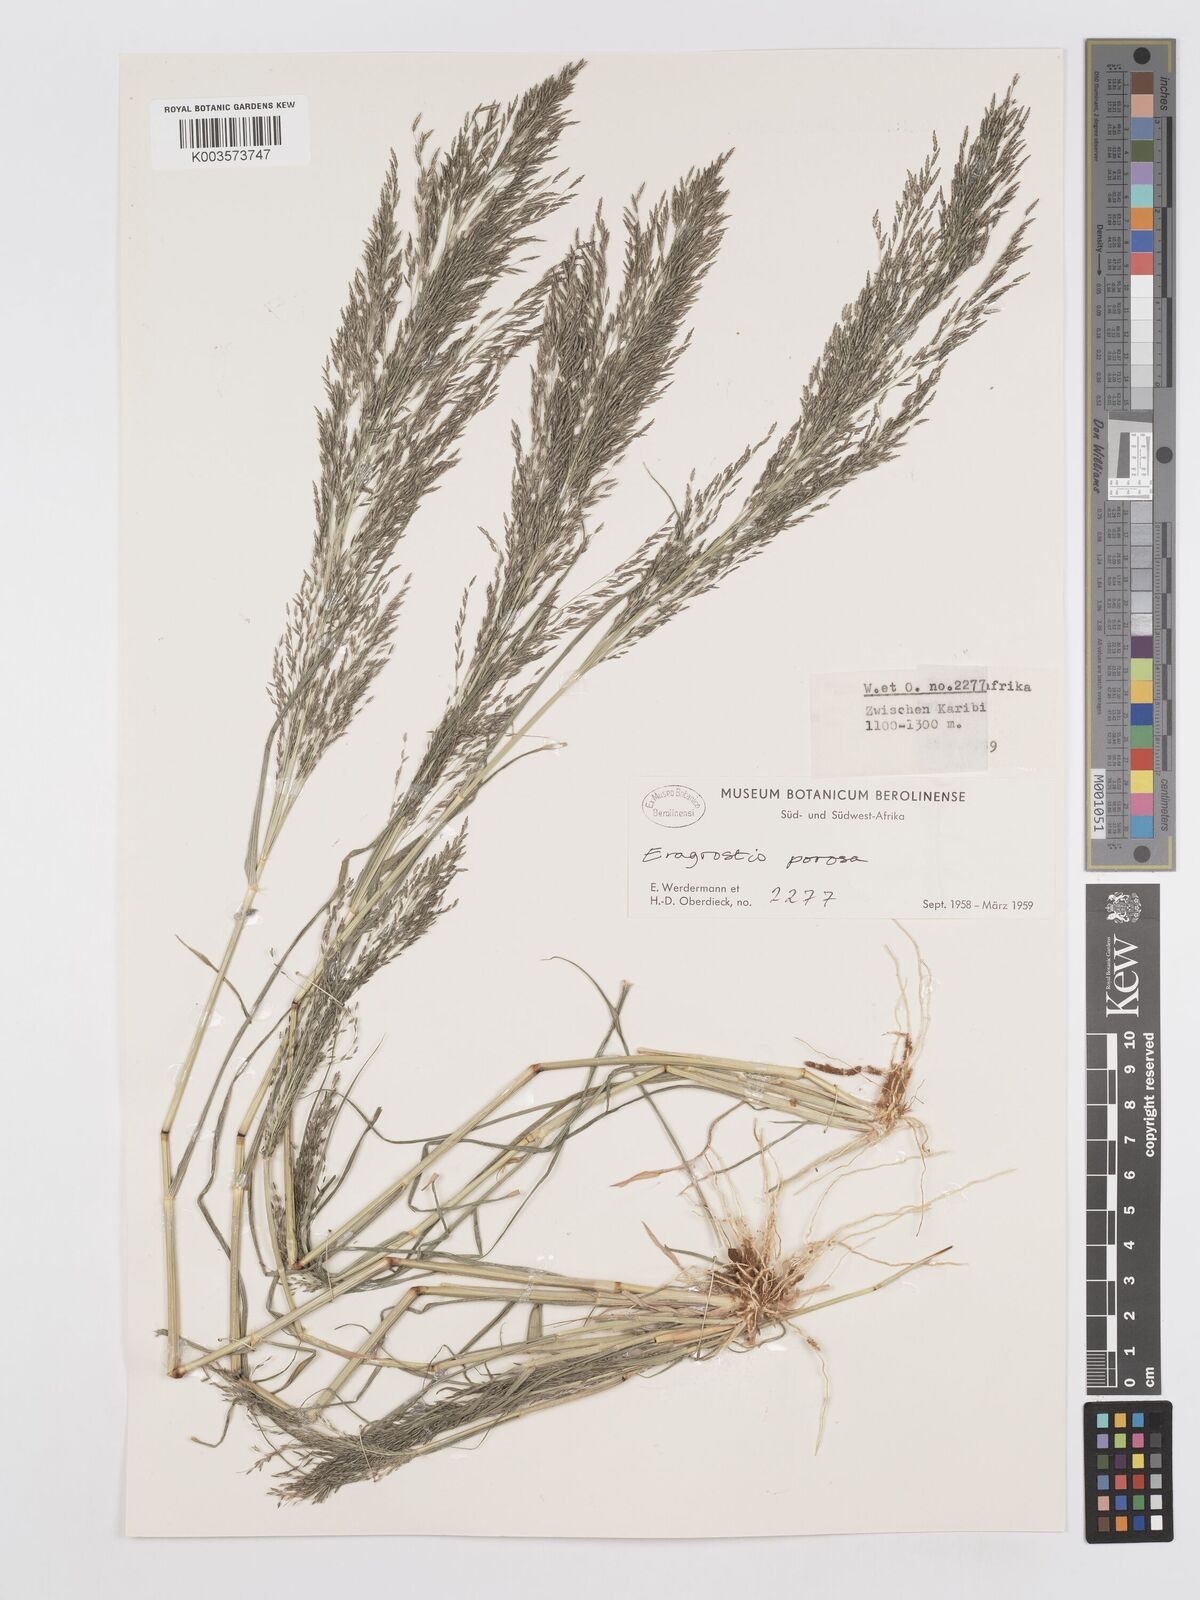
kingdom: Plantae
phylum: Tracheophyta
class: Liliopsida
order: Poales
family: Poaceae
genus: Eragrostis
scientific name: Eragrostis porosa
